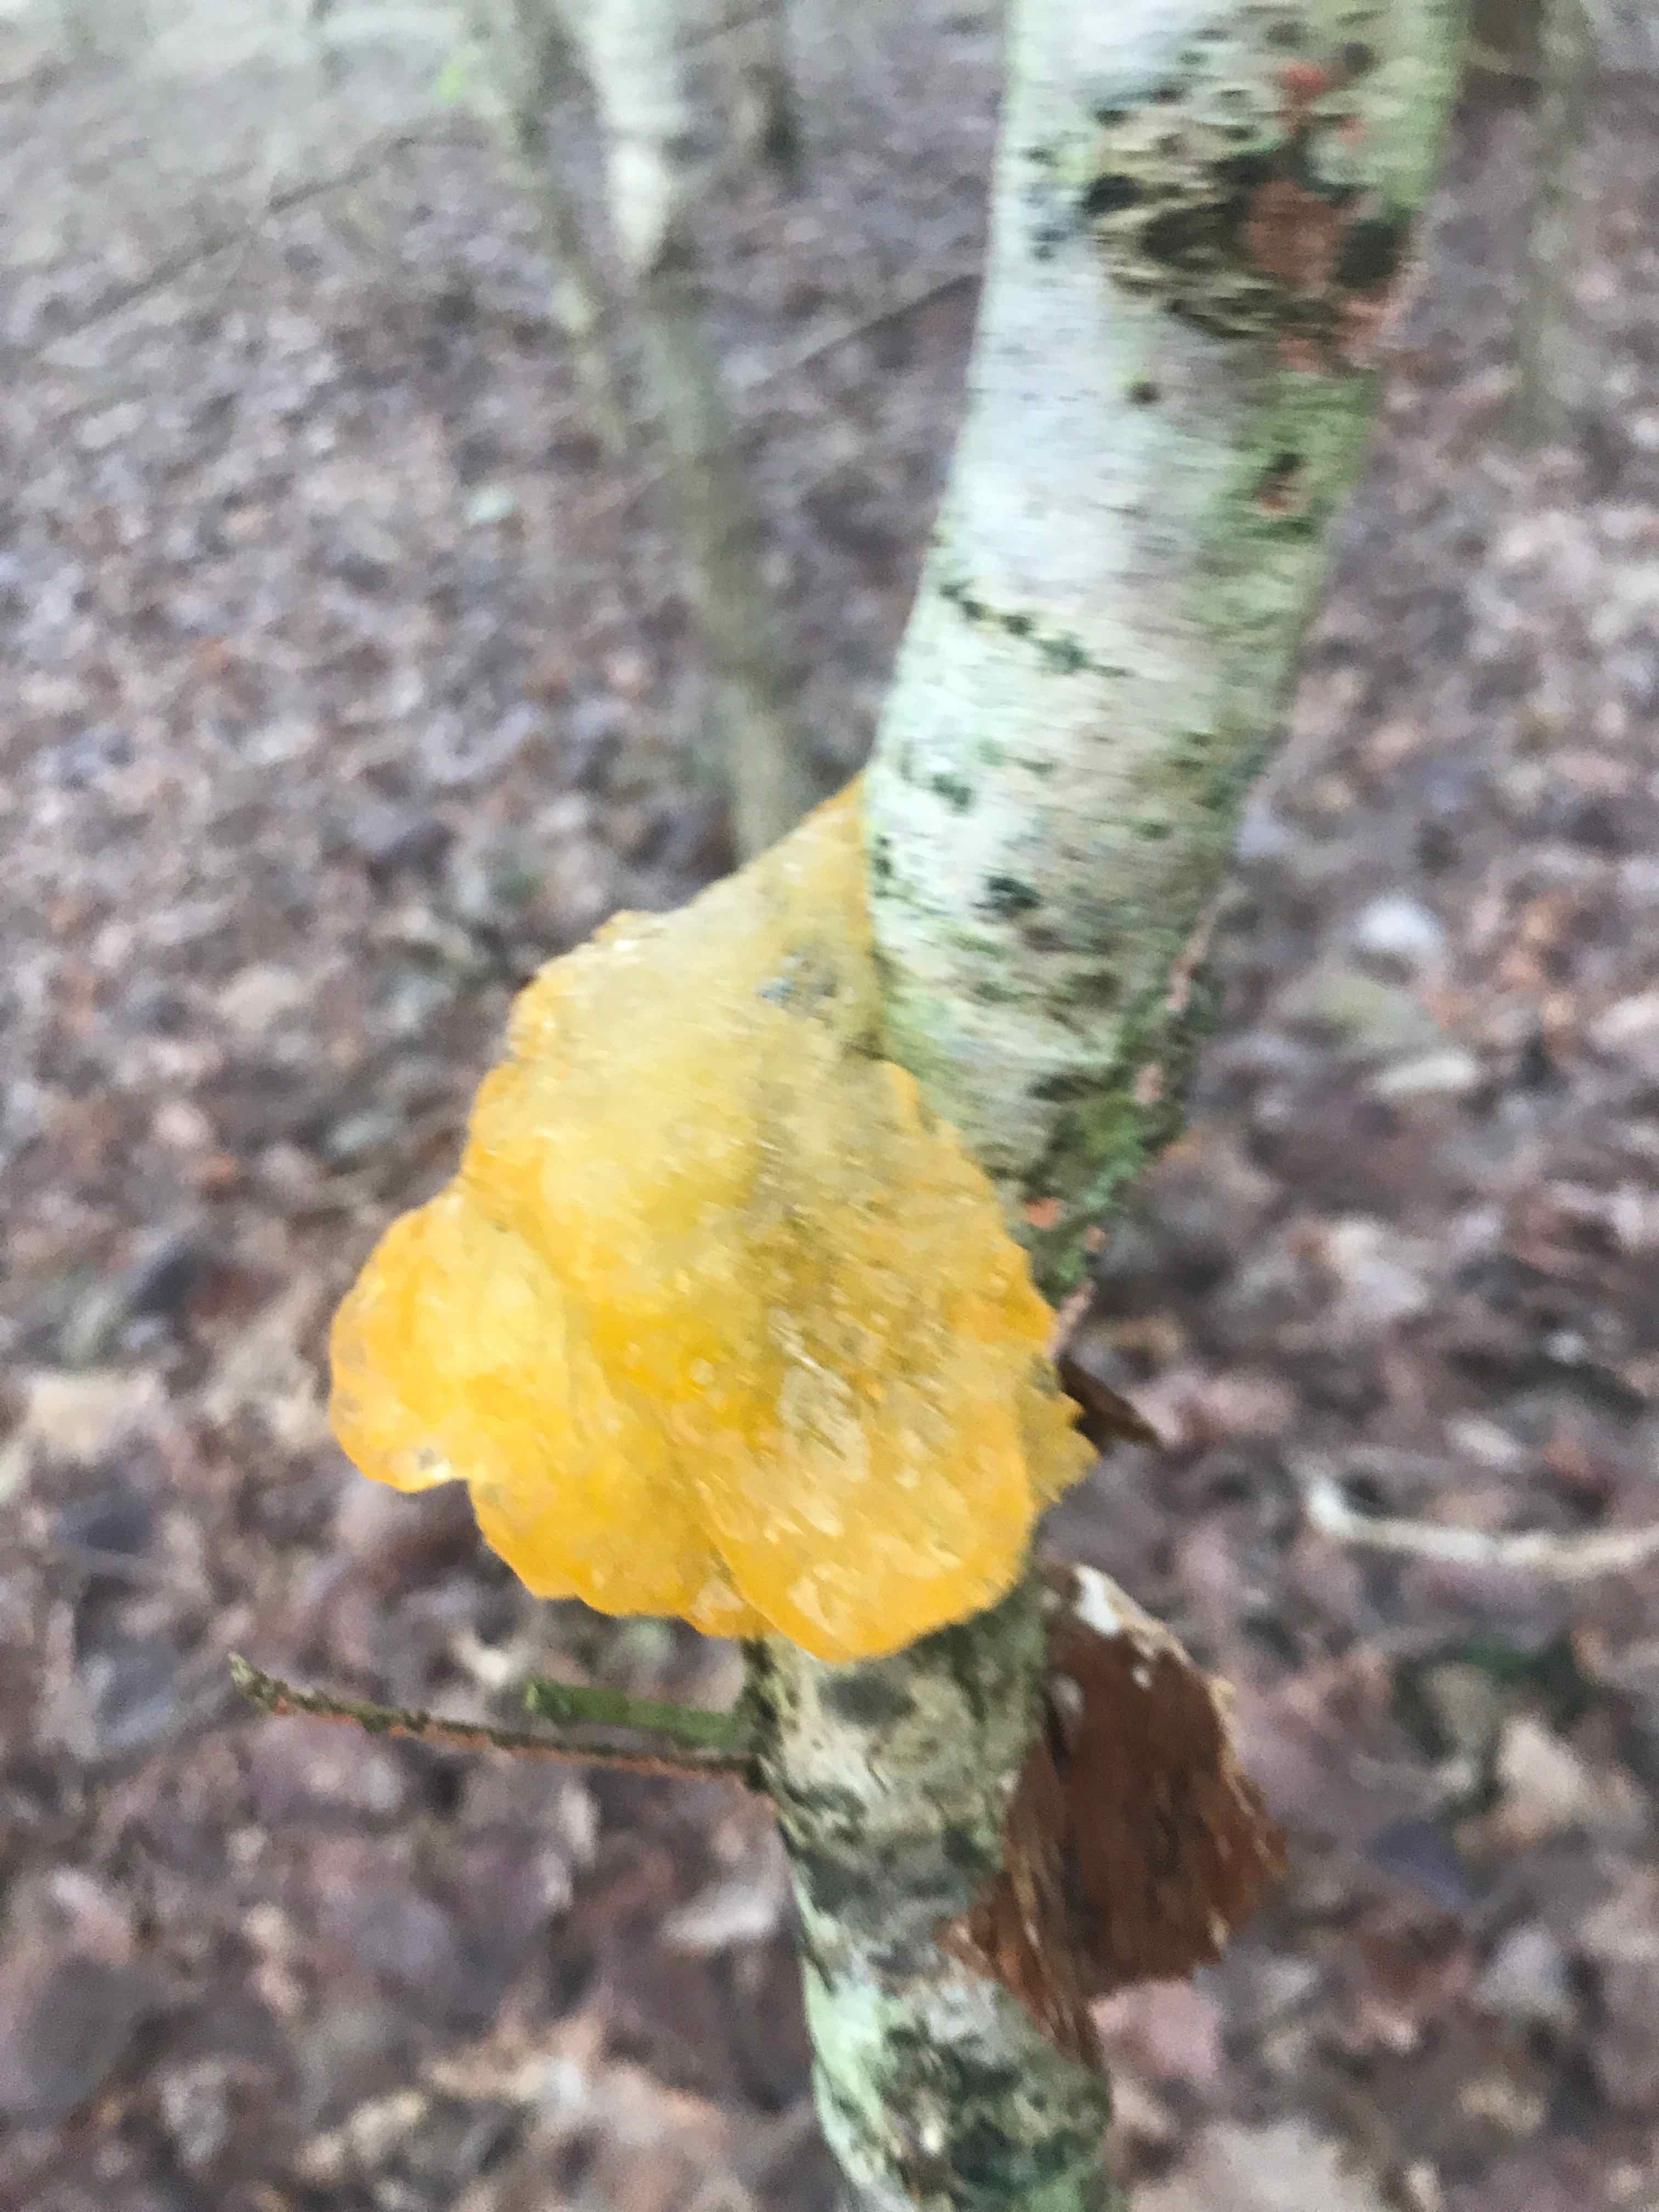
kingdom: Fungi
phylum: Basidiomycota
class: Tremellomycetes
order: Tremellales
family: Tremellaceae
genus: Tremella
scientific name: Tremella mesenterica
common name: gul bævresvamp
